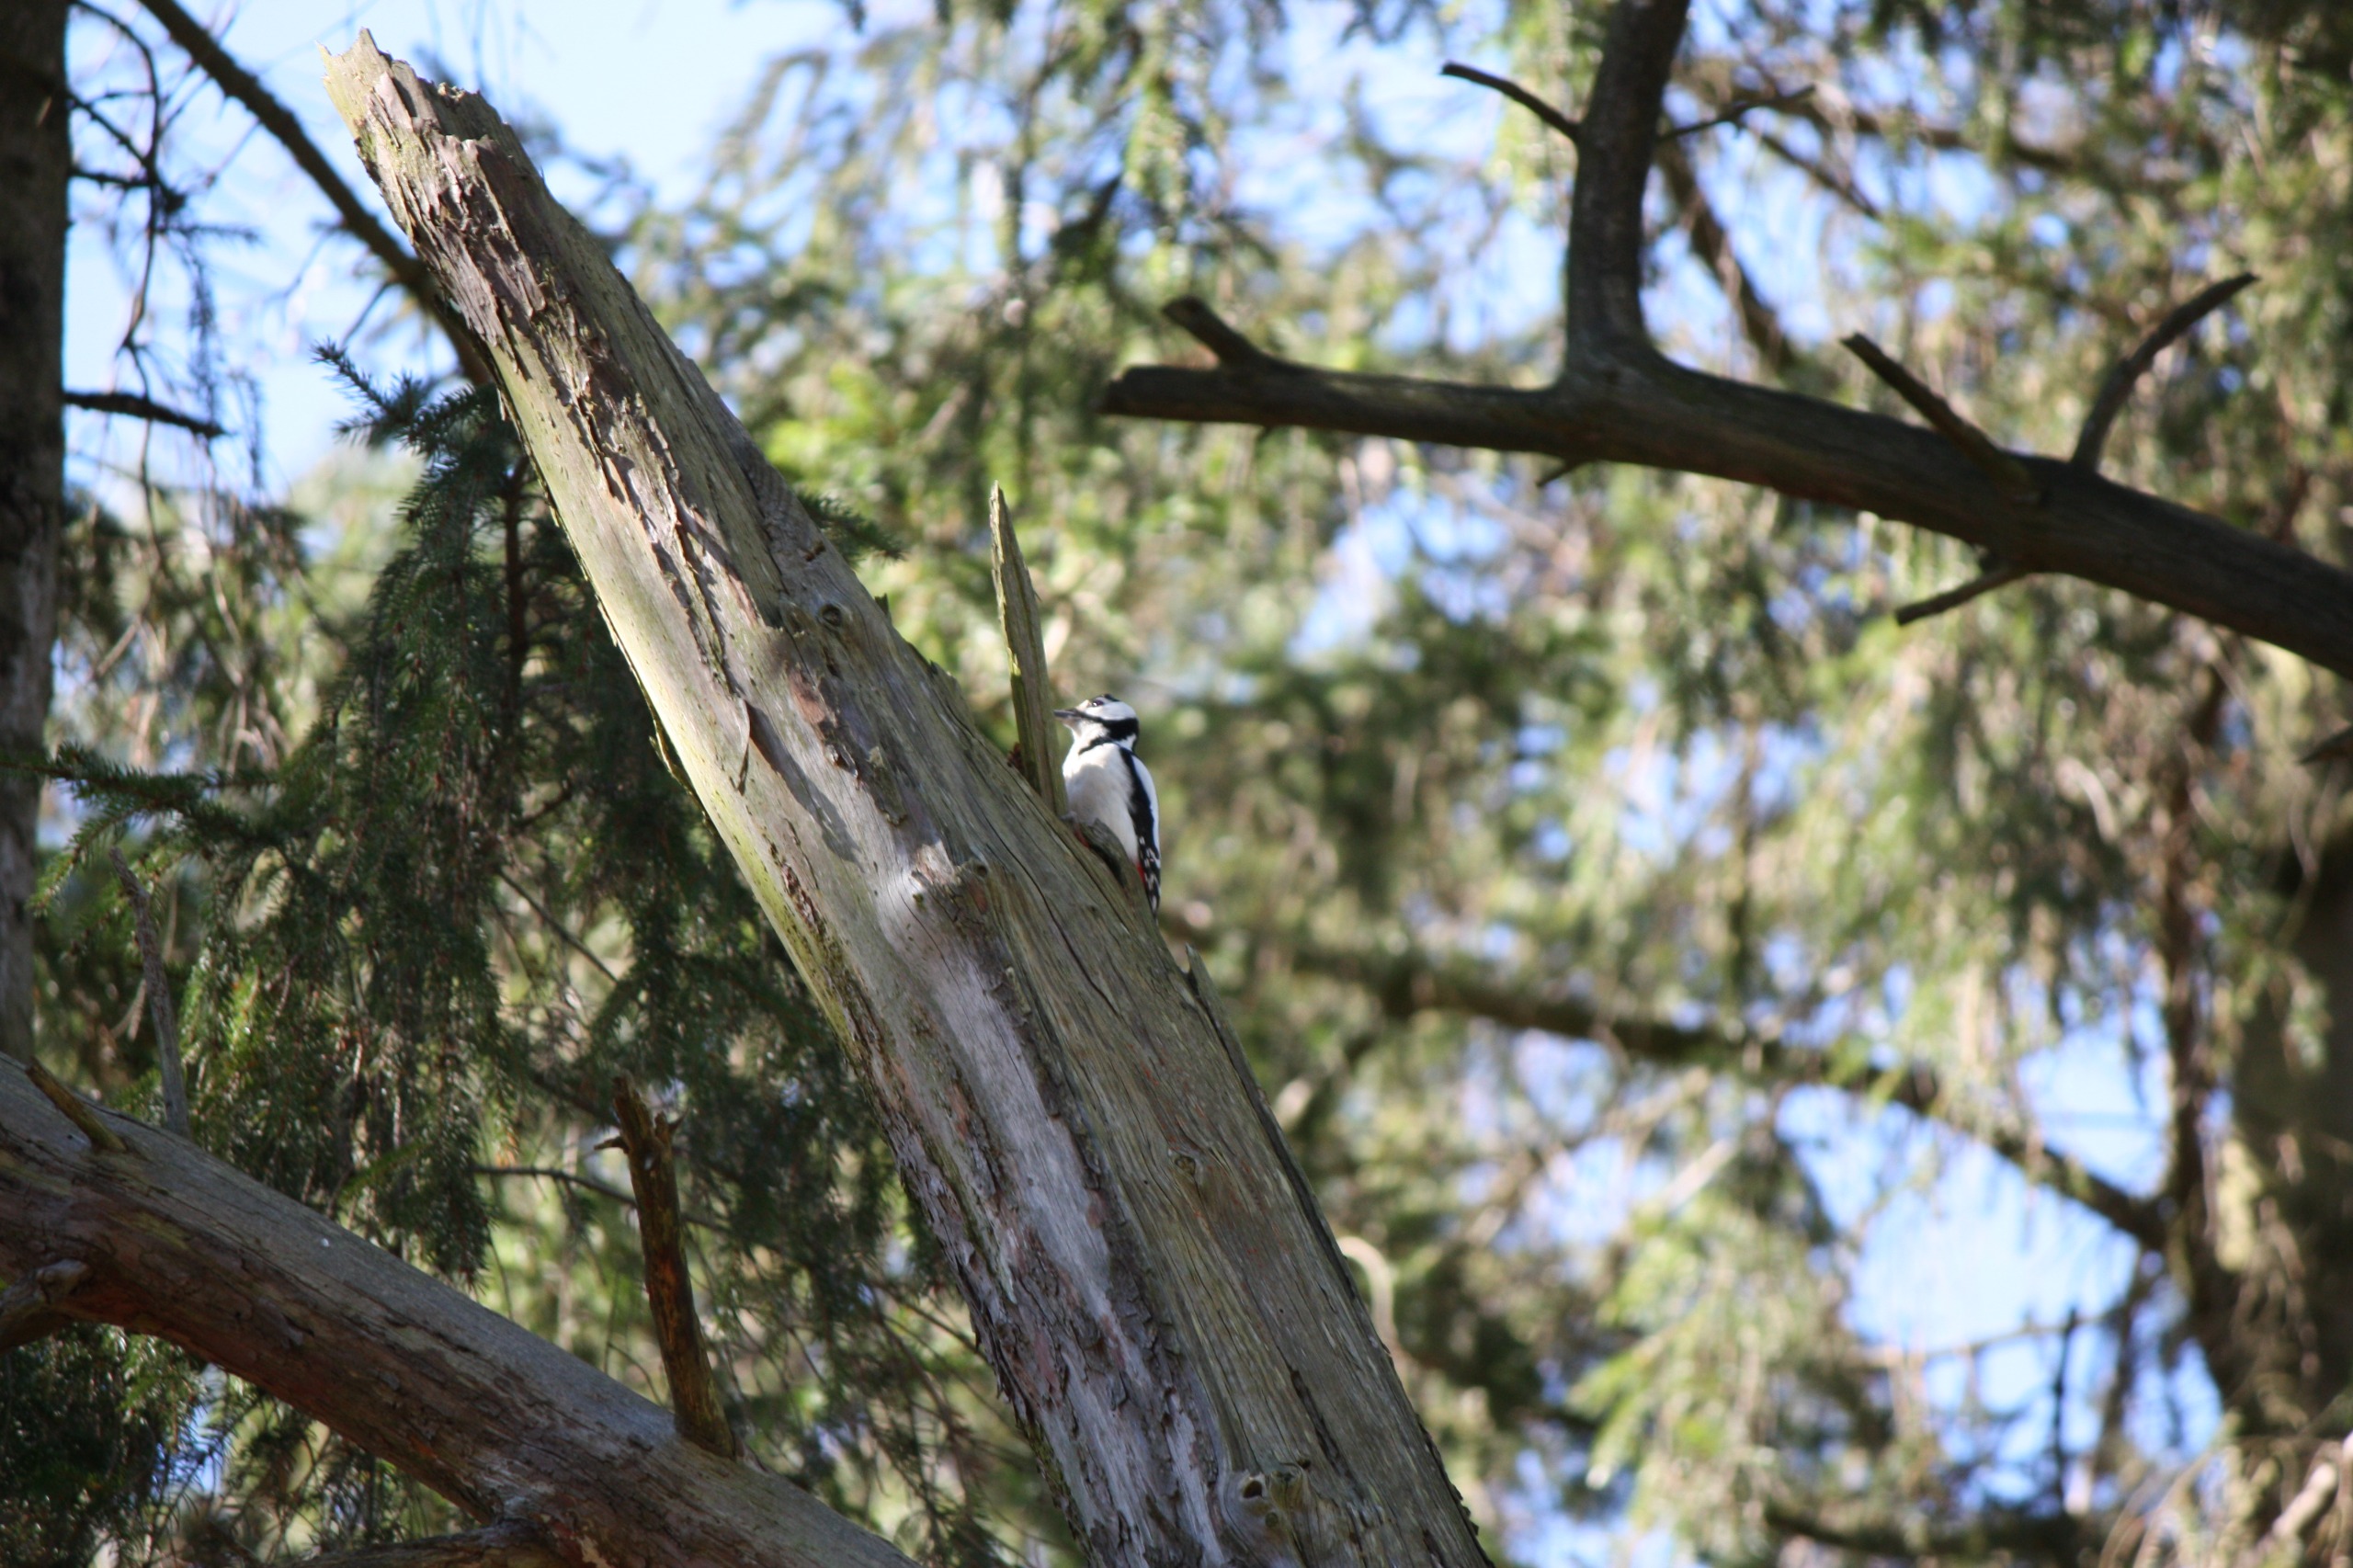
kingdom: Animalia
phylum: Chordata
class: Aves
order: Piciformes
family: Picidae
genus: Dendrocopos
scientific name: Dendrocopos major
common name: Stor flagspætte
